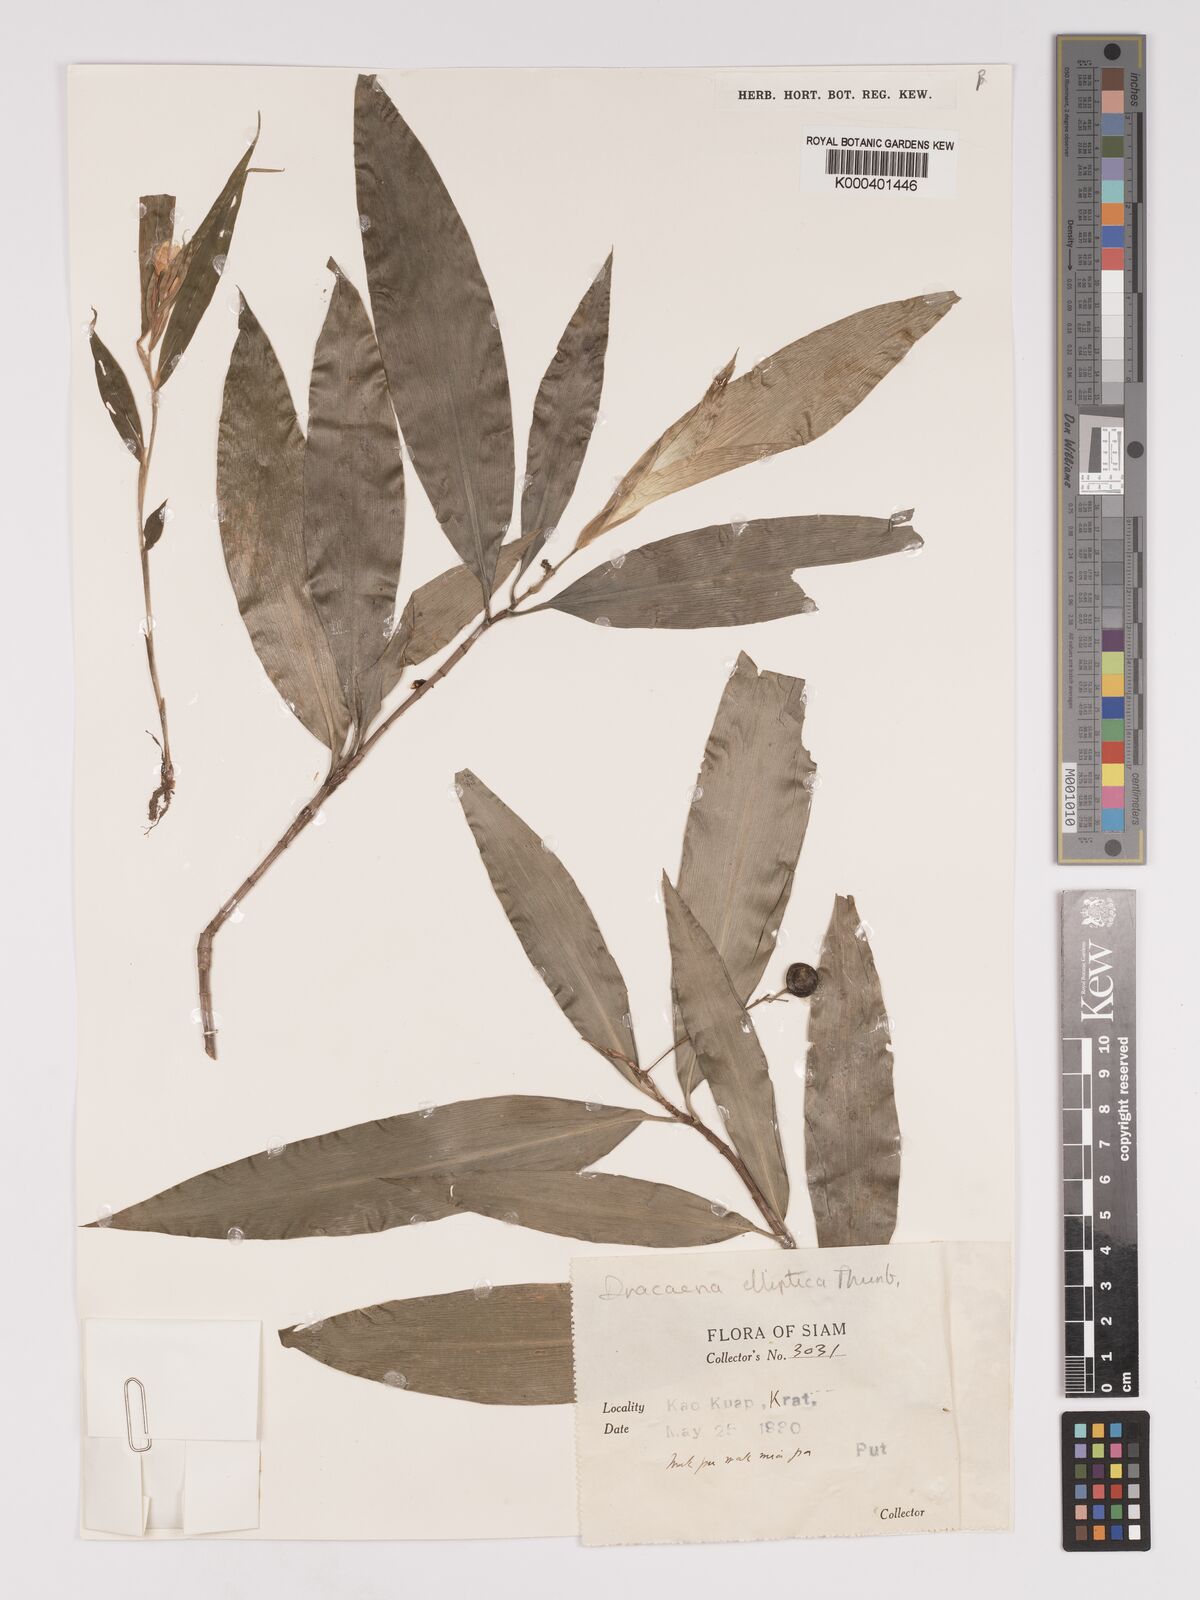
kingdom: Plantae
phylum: Tracheophyta
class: Liliopsida
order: Asparagales
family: Asparagaceae
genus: Dracaena
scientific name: Dracaena elliptica
